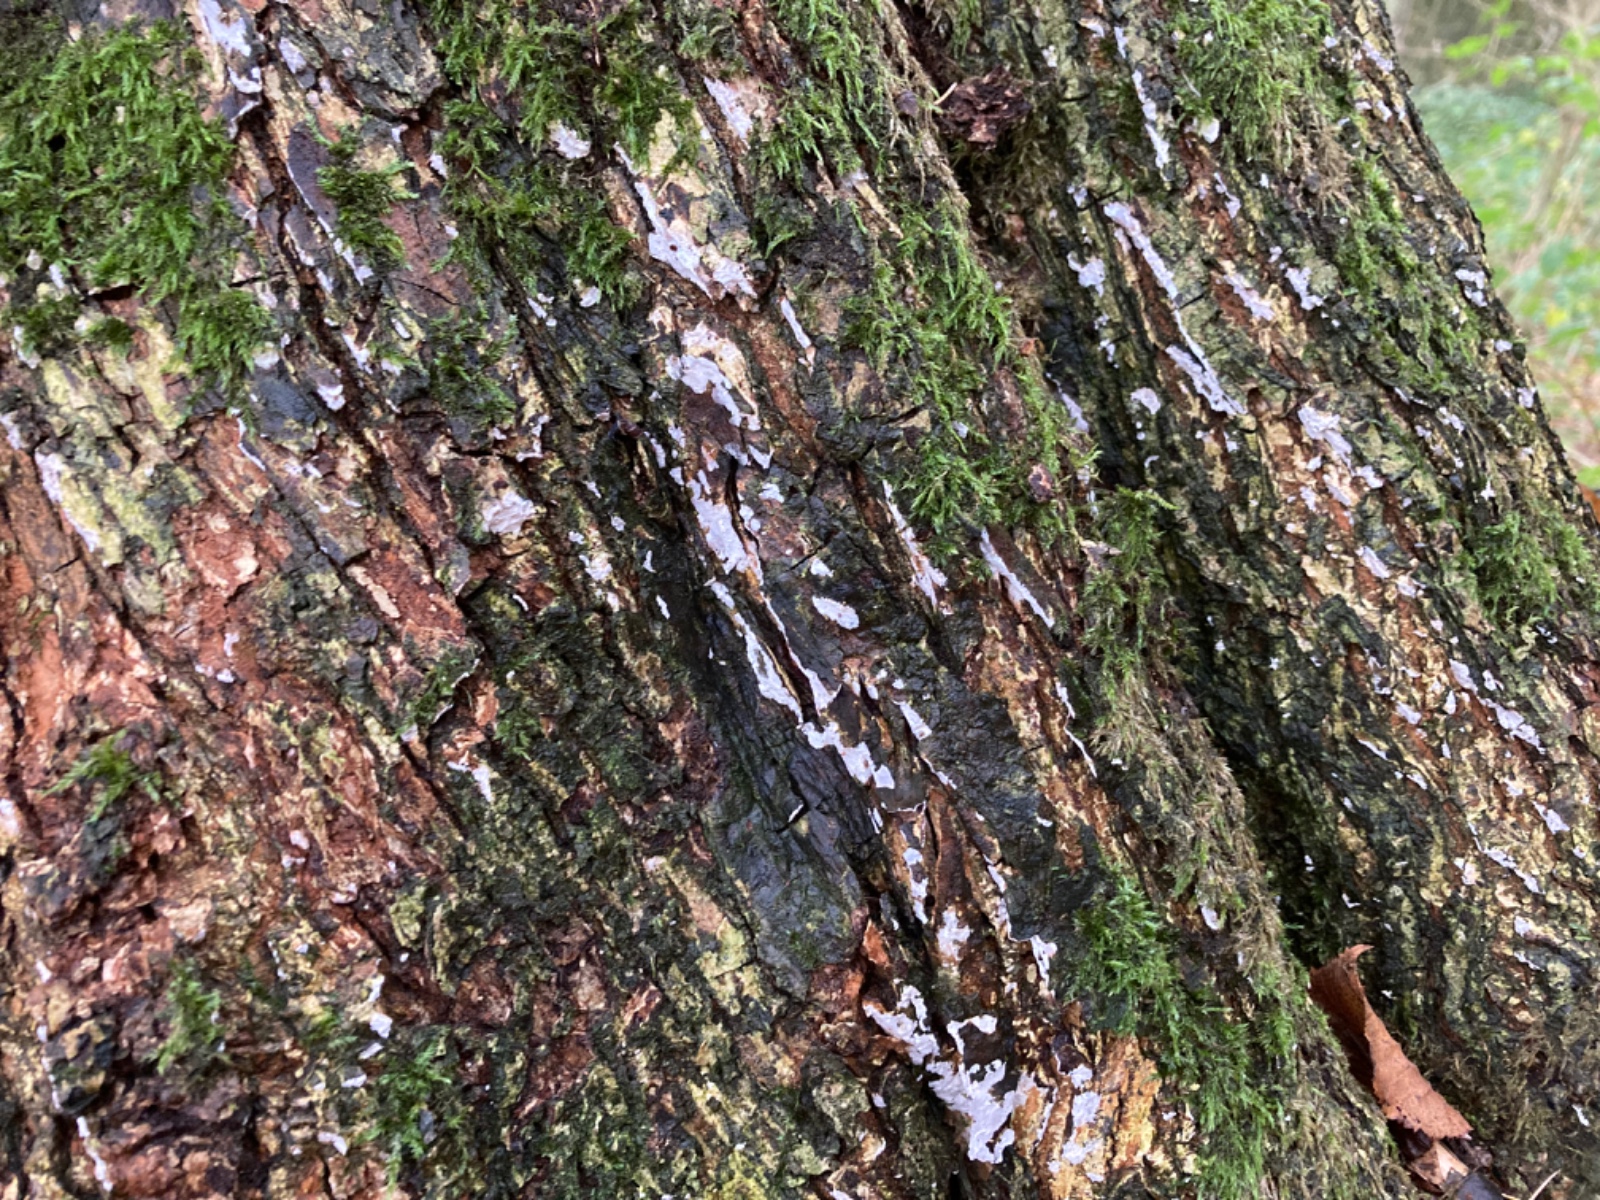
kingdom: Fungi
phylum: Basidiomycota
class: Agaricomycetes
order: Agaricales
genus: Dendrothele
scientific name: Dendrothele acerina
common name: navr-kalkplet
